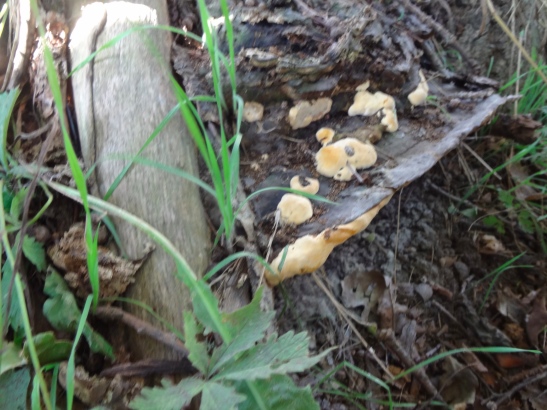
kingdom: Fungi
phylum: Basidiomycota
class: Agaricomycetes
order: Polyporales
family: Polyporaceae
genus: Vanderbylia
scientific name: Vanderbylia fraxinea
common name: stor kanelporesvamp
